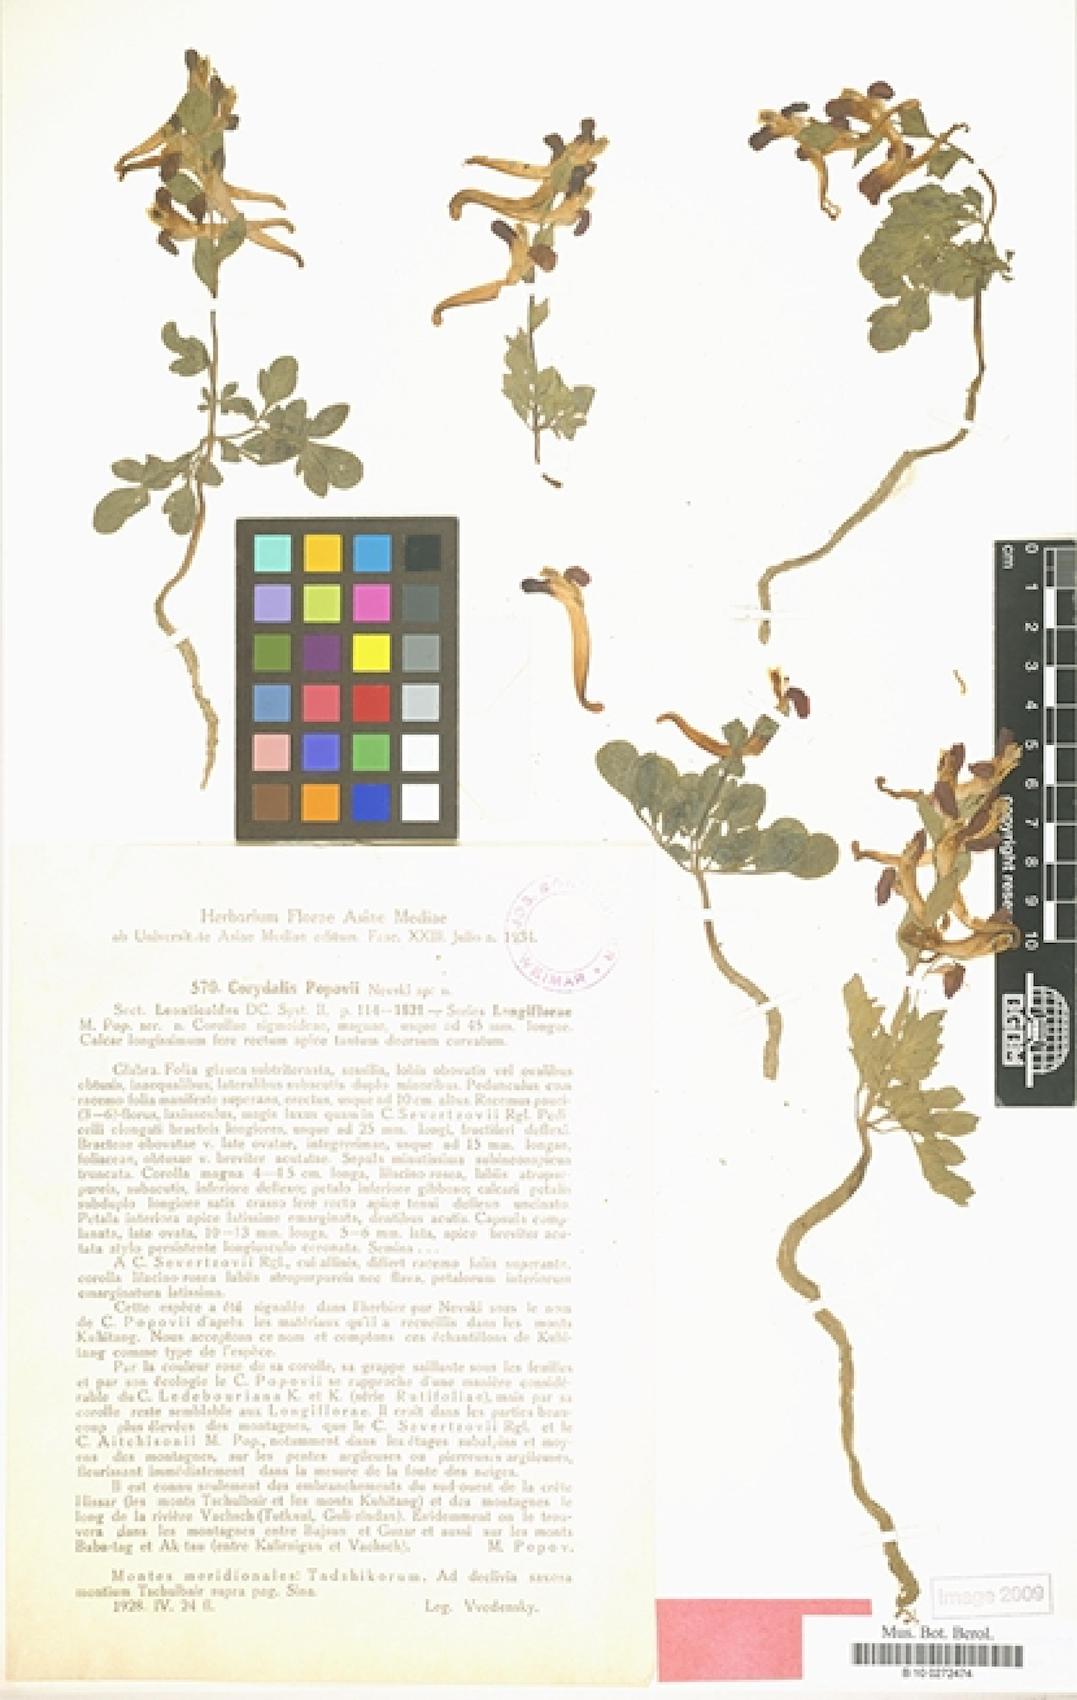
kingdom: Plantae
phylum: Tracheophyta
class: Magnoliopsida
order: Ranunculales
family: Papaveraceae
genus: Corydalis
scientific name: Corydalis popovii
